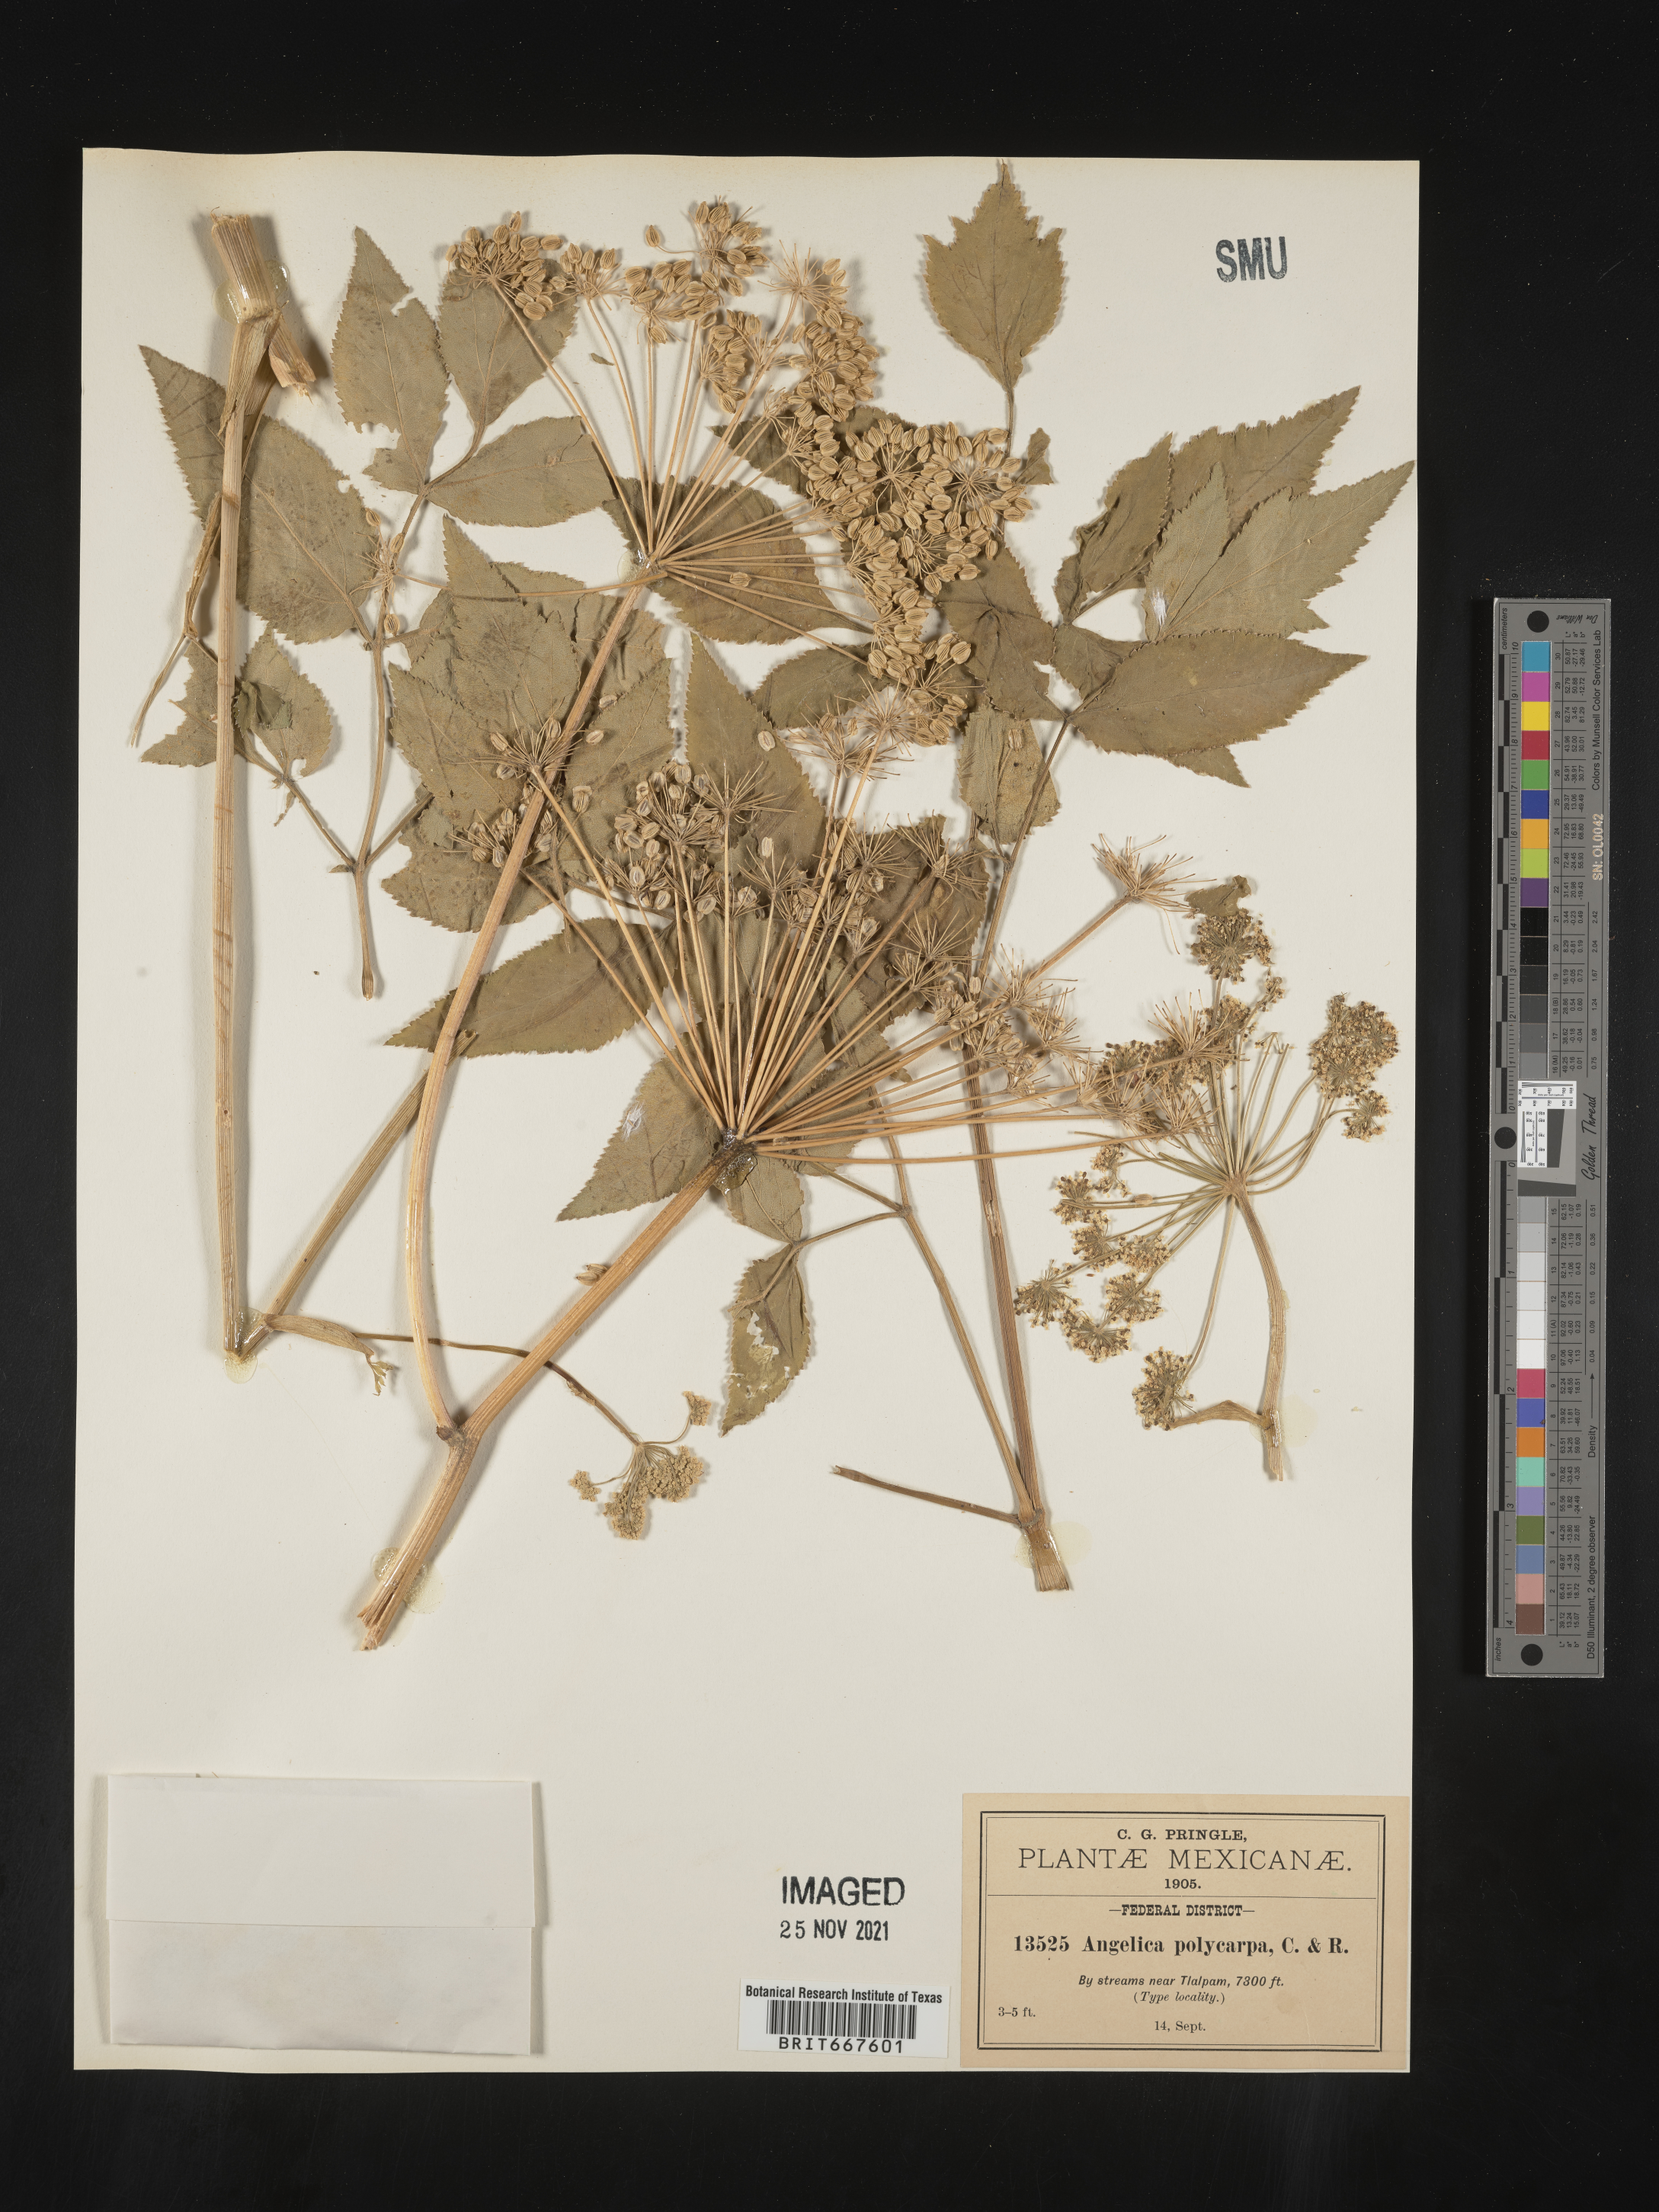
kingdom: Plantae
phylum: Tracheophyta
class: Magnoliopsida
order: Apiales
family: Apiaceae
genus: Angelica
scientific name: Angelica
